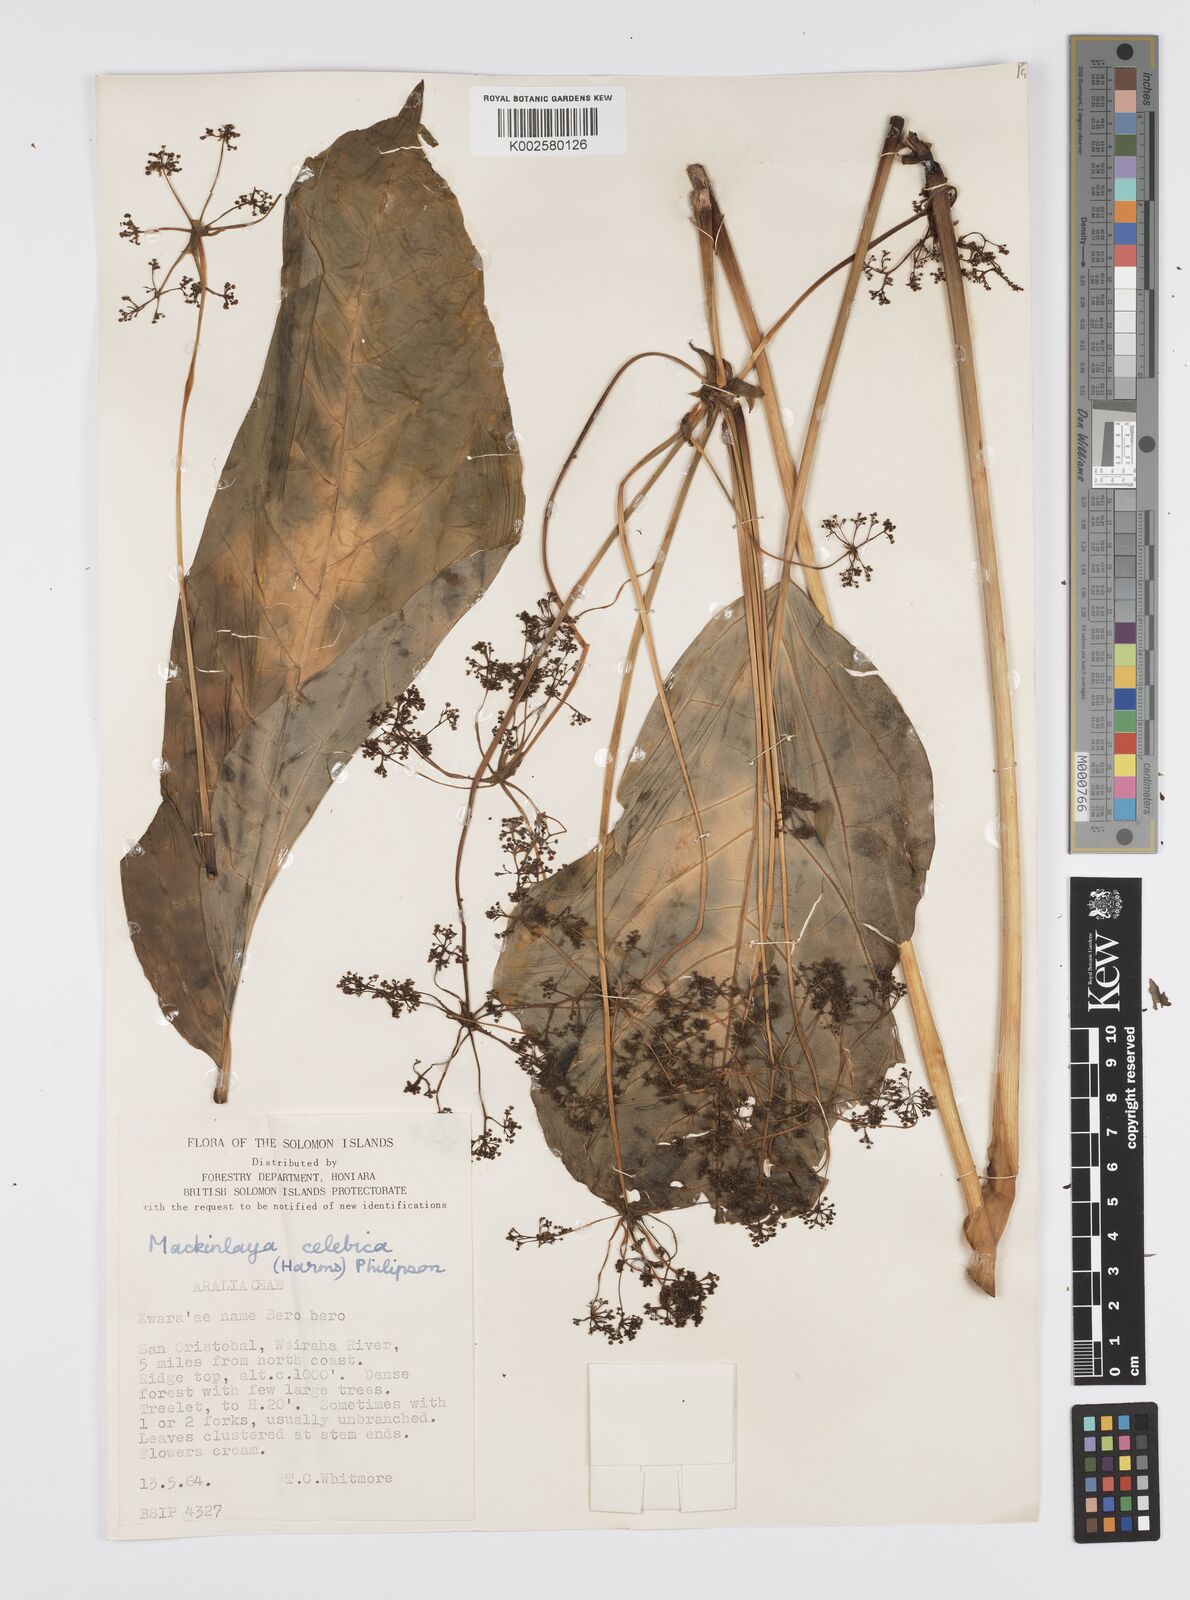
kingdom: Plantae
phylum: Tracheophyta
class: Magnoliopsida
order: Apiales
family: Apiaceae
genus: Mackinlaya
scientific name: Mackinlaya celebica
